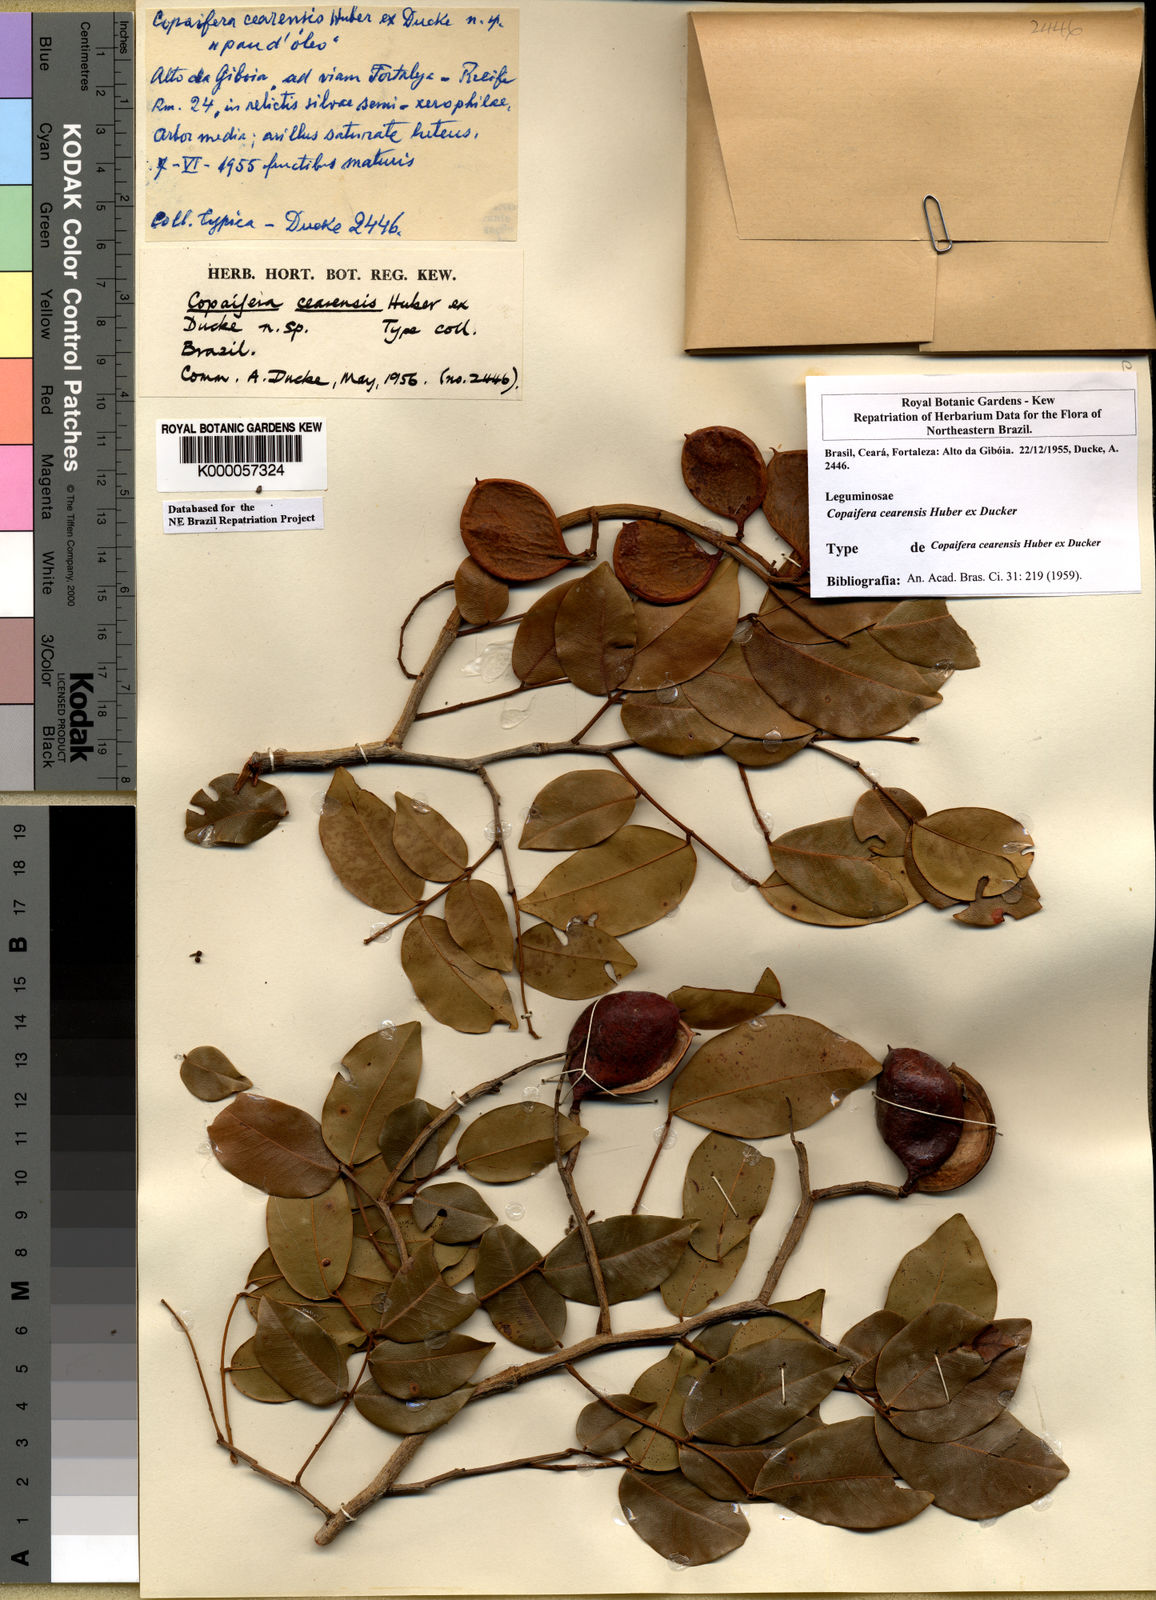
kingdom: Plantae
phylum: Tracheophyta
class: Magnoliopsida
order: Fabales
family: Fabaceae
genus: Copaifera
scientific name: Copaifera duckei
